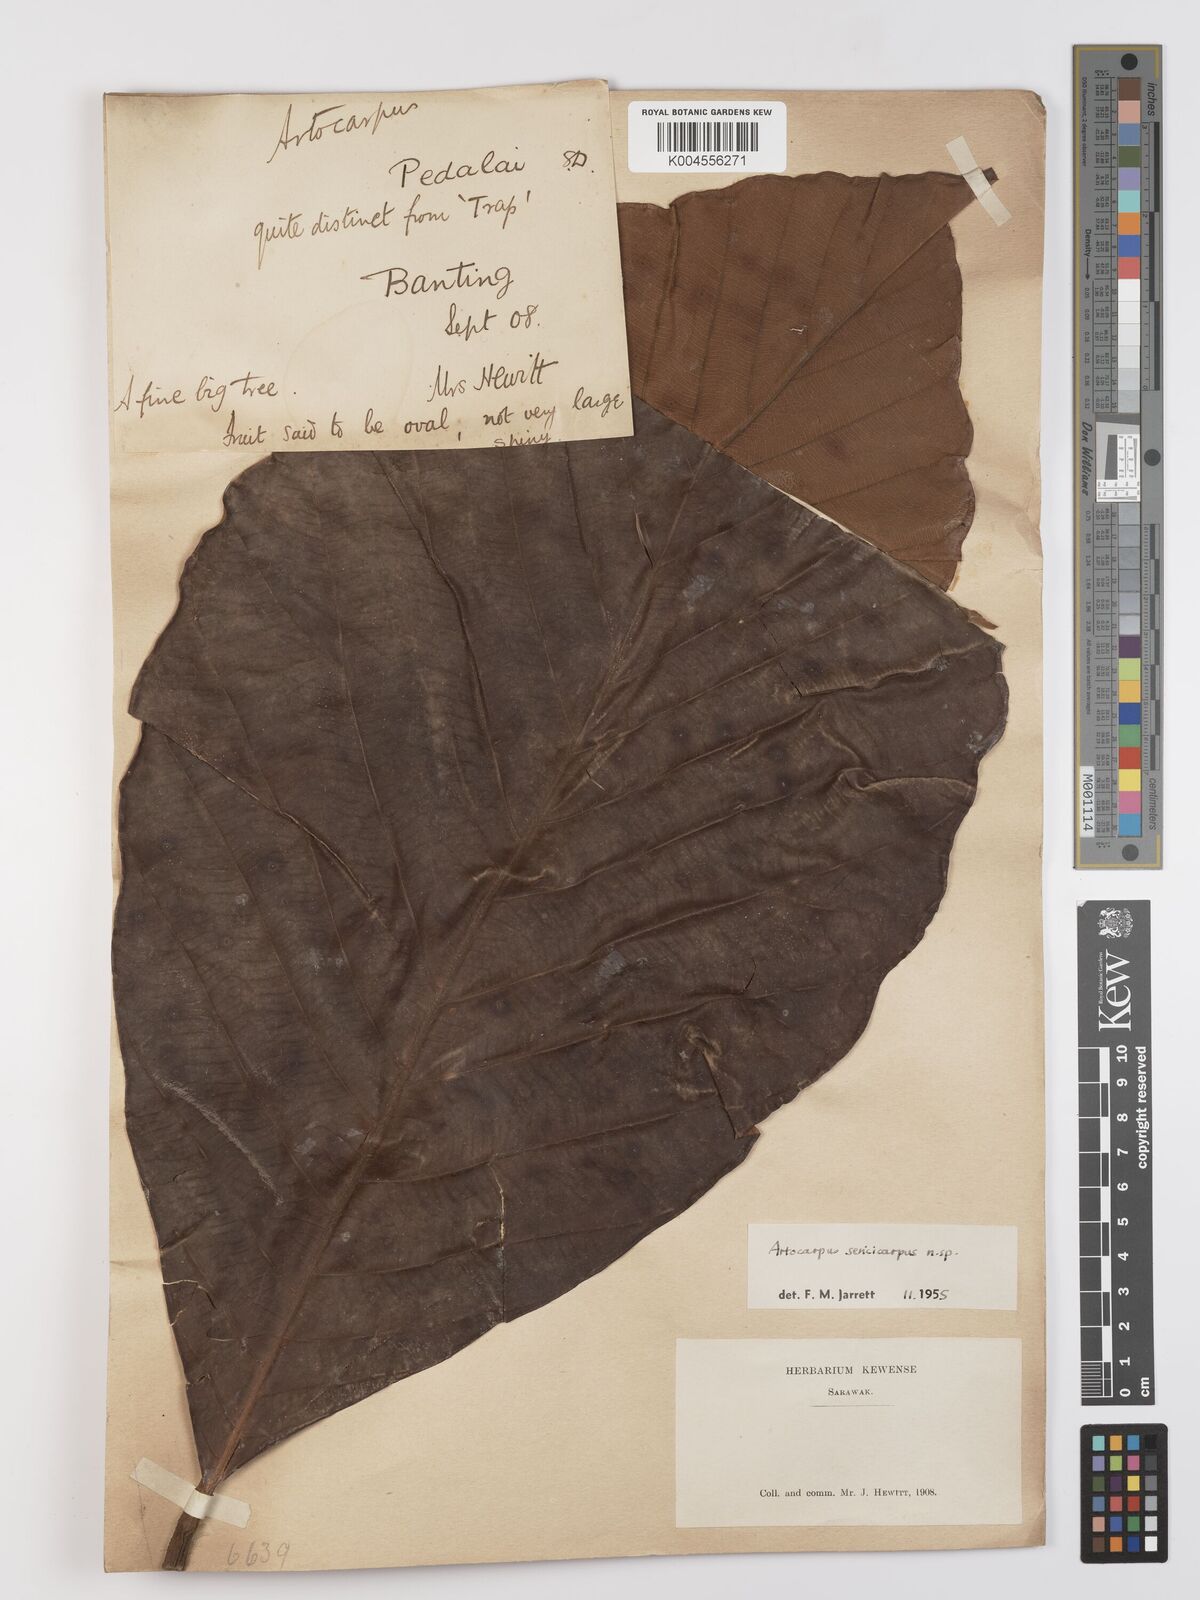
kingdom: Plantae
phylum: Tracheophyta
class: Magnoliopsida
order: Rosales
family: Moraceae
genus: Artocarpus
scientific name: Artocarpus sericicarpus
